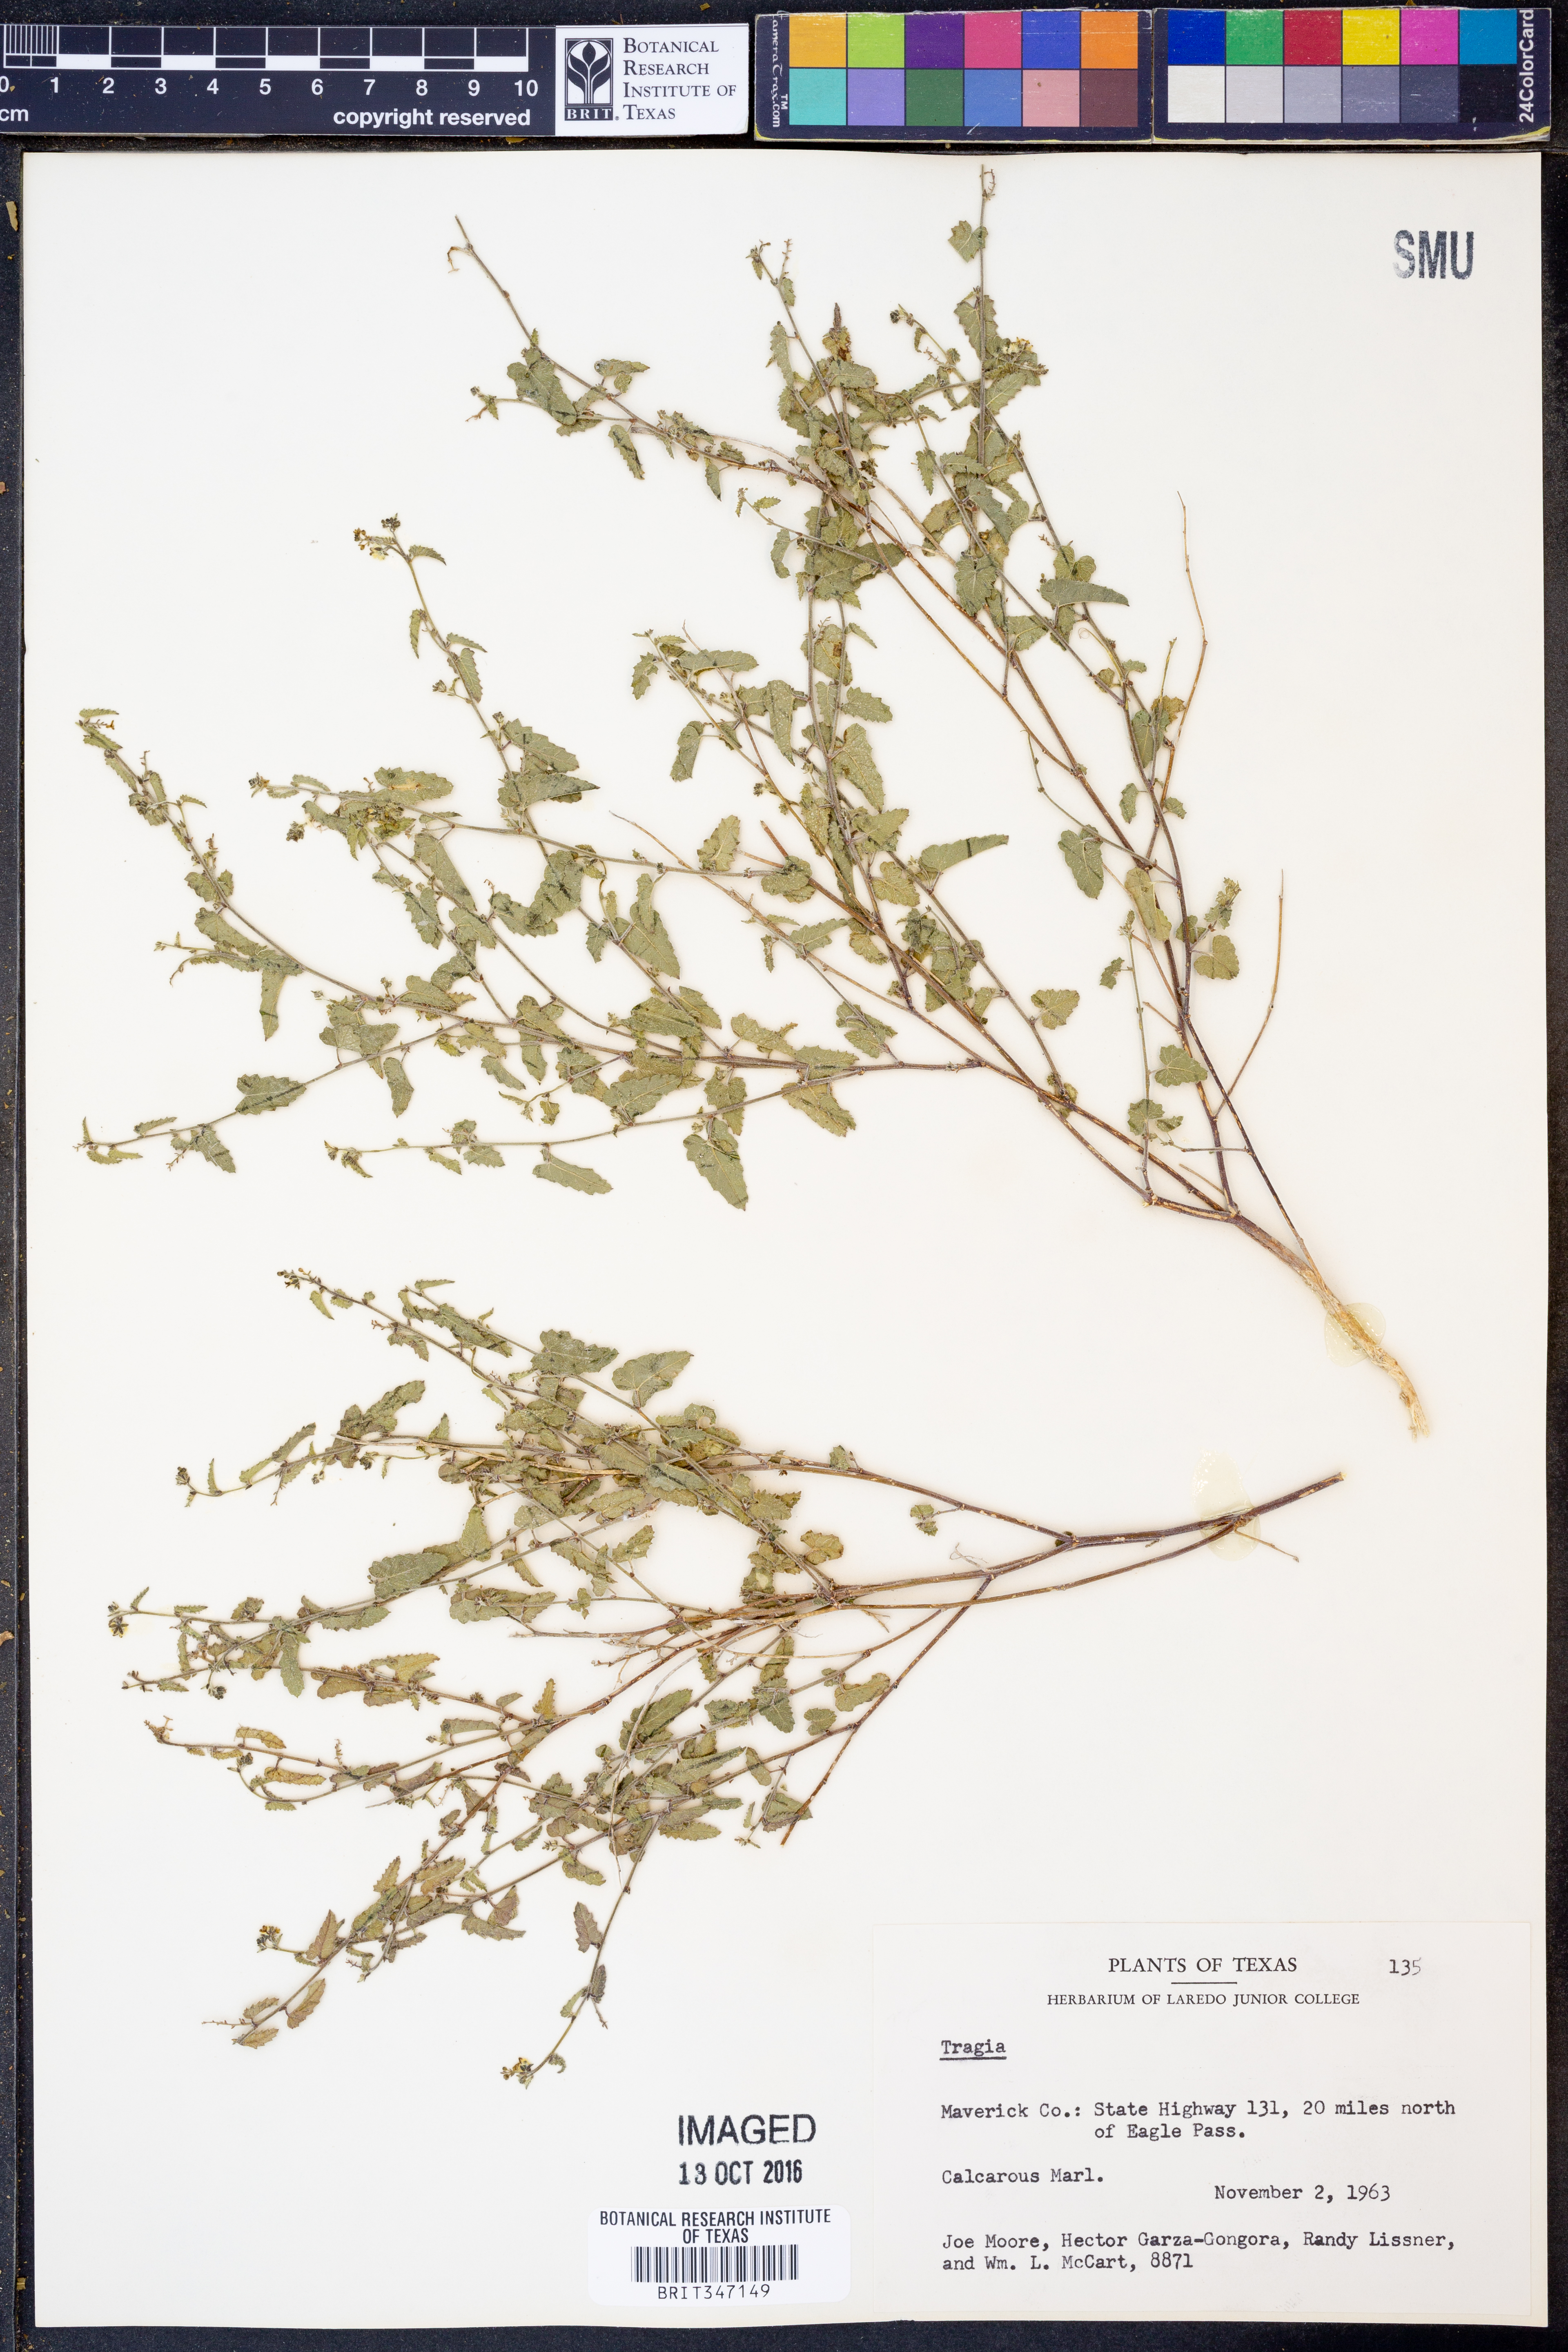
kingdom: Plantae
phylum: Tracheophyta
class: Magnoliopsida
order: Malpighiales
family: Euphorbiaceae
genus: Tragia
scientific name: Tragia
